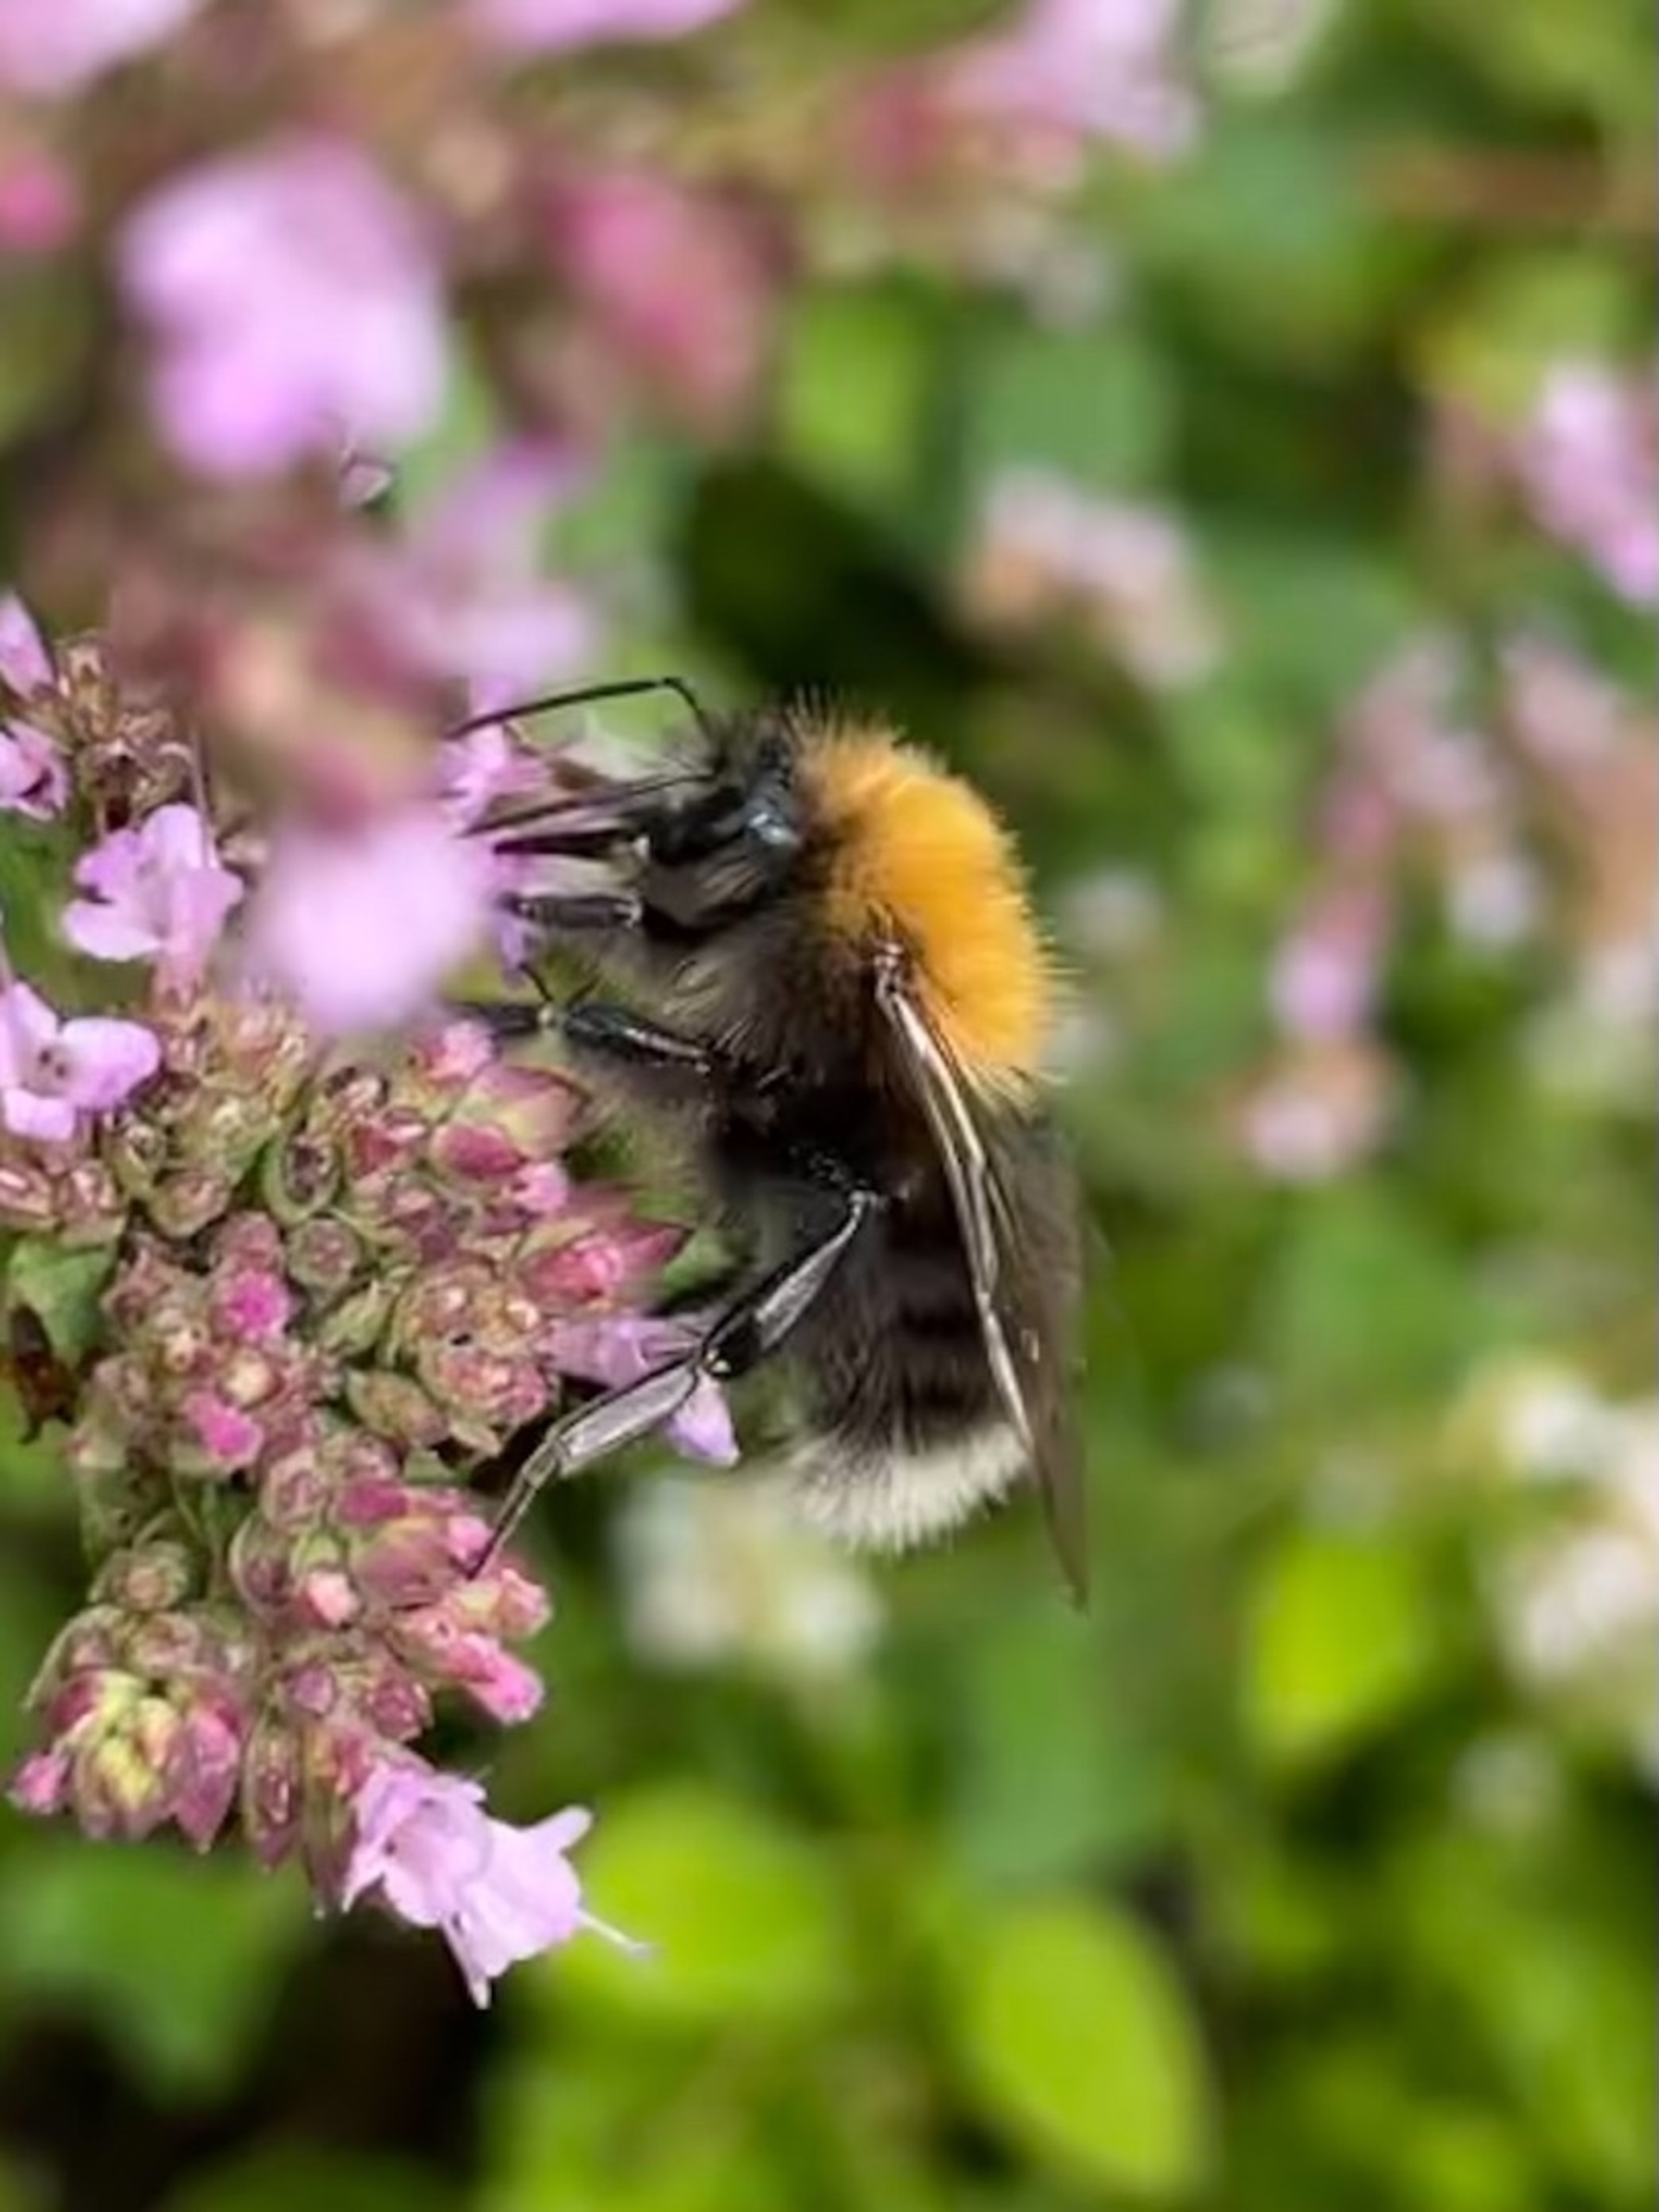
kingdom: Animalia
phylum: Arthropoda
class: Insecta
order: Hymenoptera
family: Apidae
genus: Bombus
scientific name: Bombus hypnorum
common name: Hushumle
